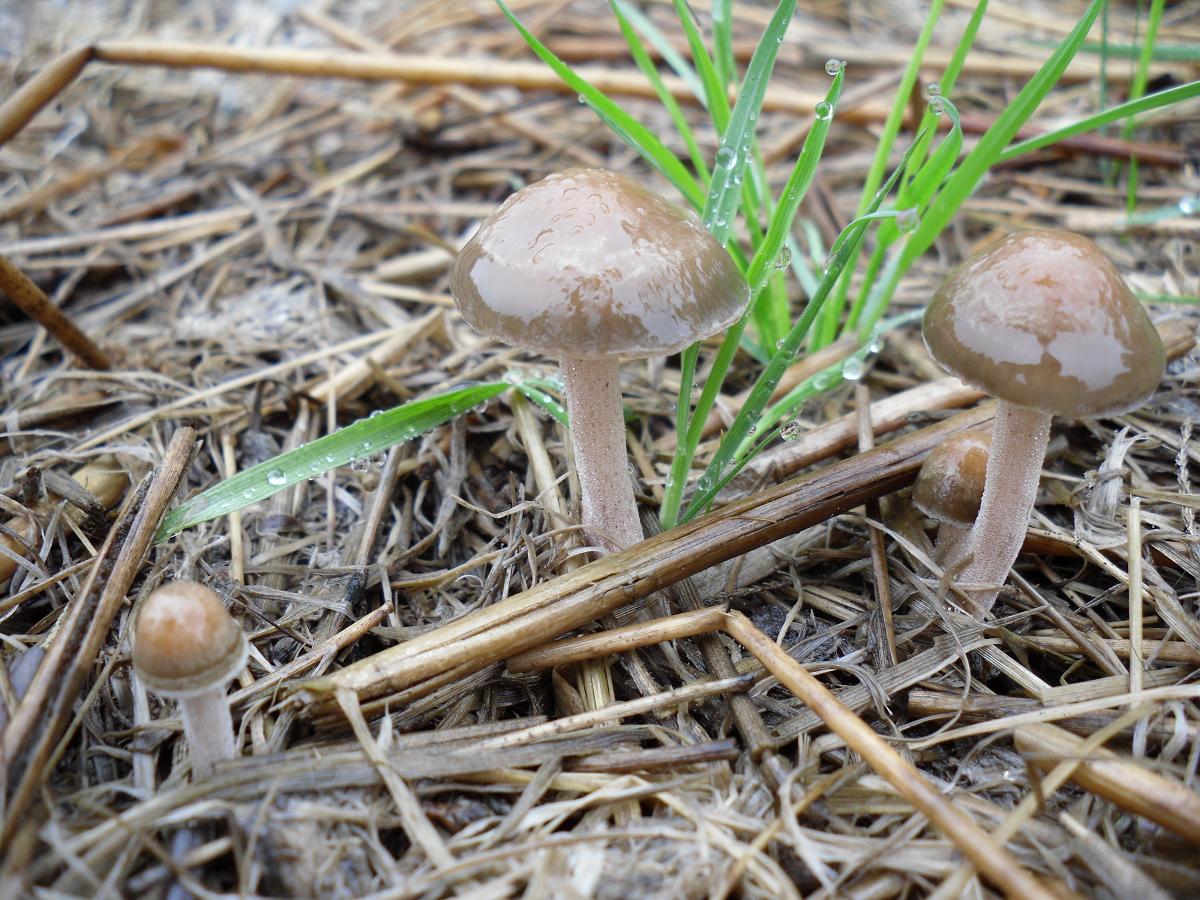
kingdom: Fungi
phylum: Basidiomycota
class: Agaricomycetes
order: Agaricales
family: Bolbitiaceae
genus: Panaeolus
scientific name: Panaeolus olivaceus
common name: lysstokket glanshat
